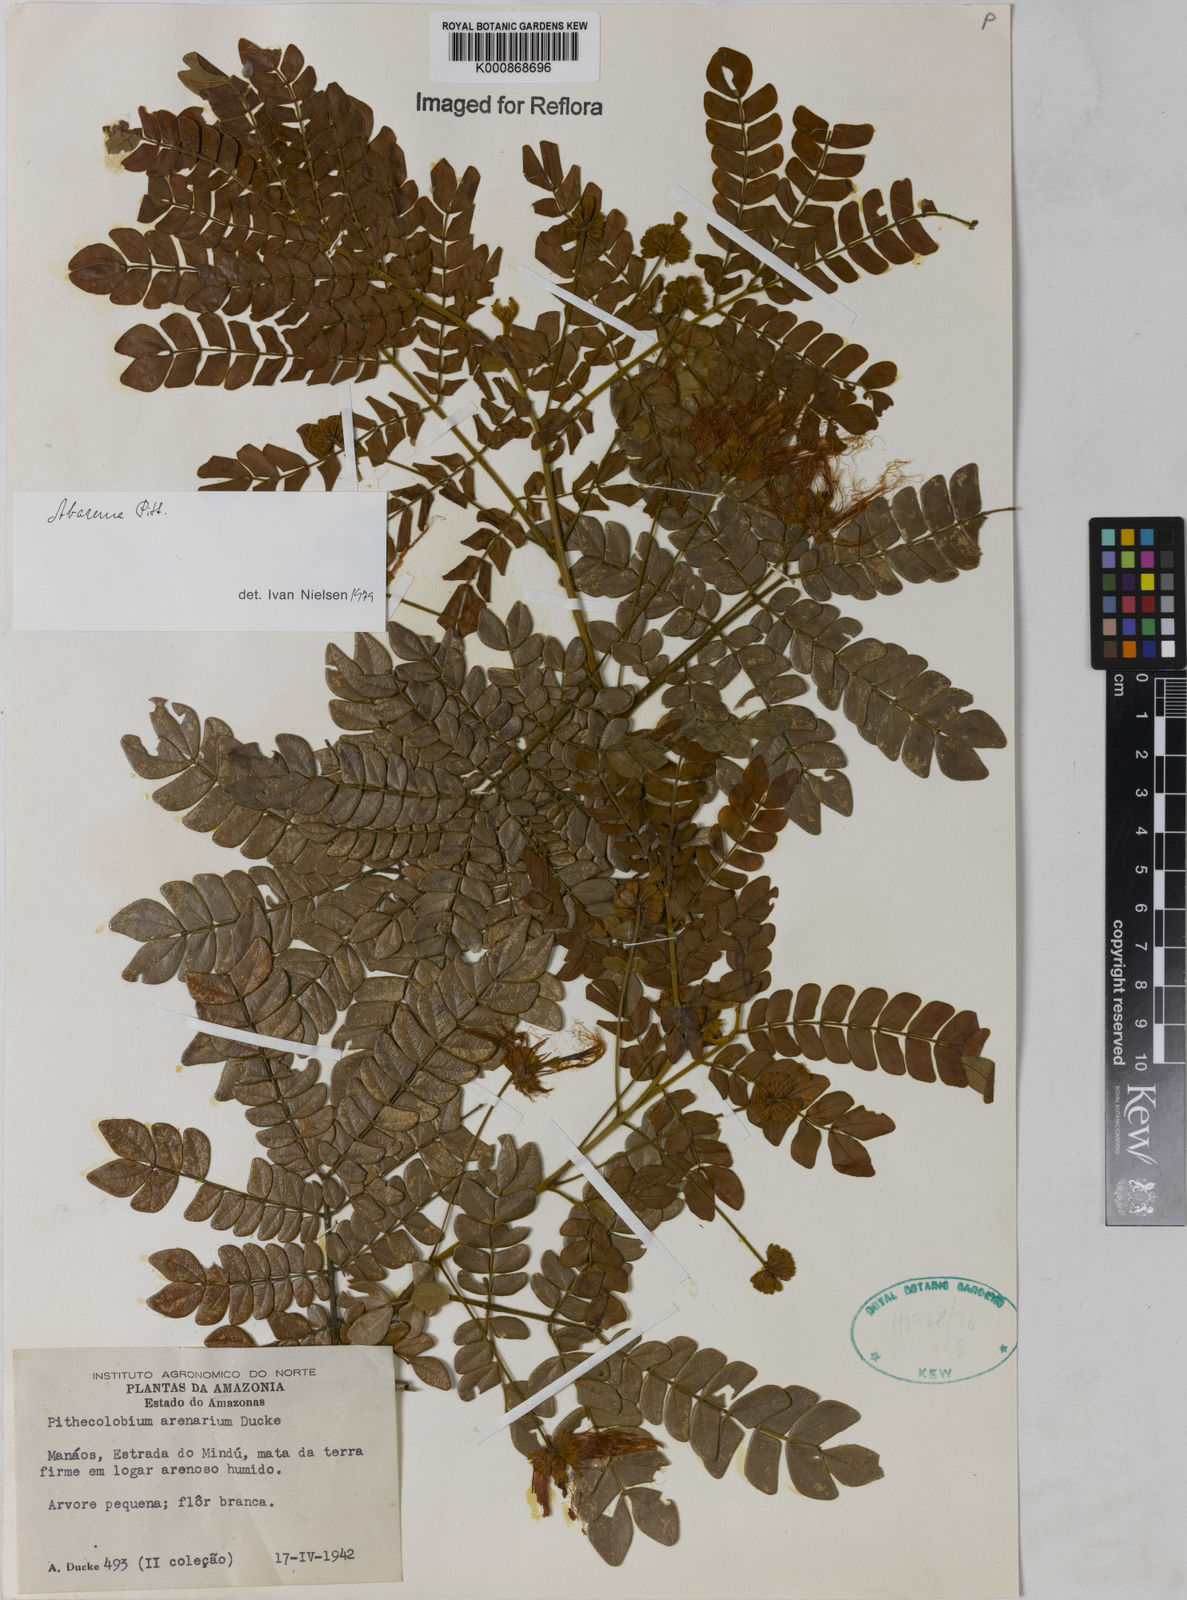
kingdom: Plantae
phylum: Tracheophyta
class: Magnoliopsida
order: Fabales
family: Fabaceae
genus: Abarema
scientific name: Abarema
